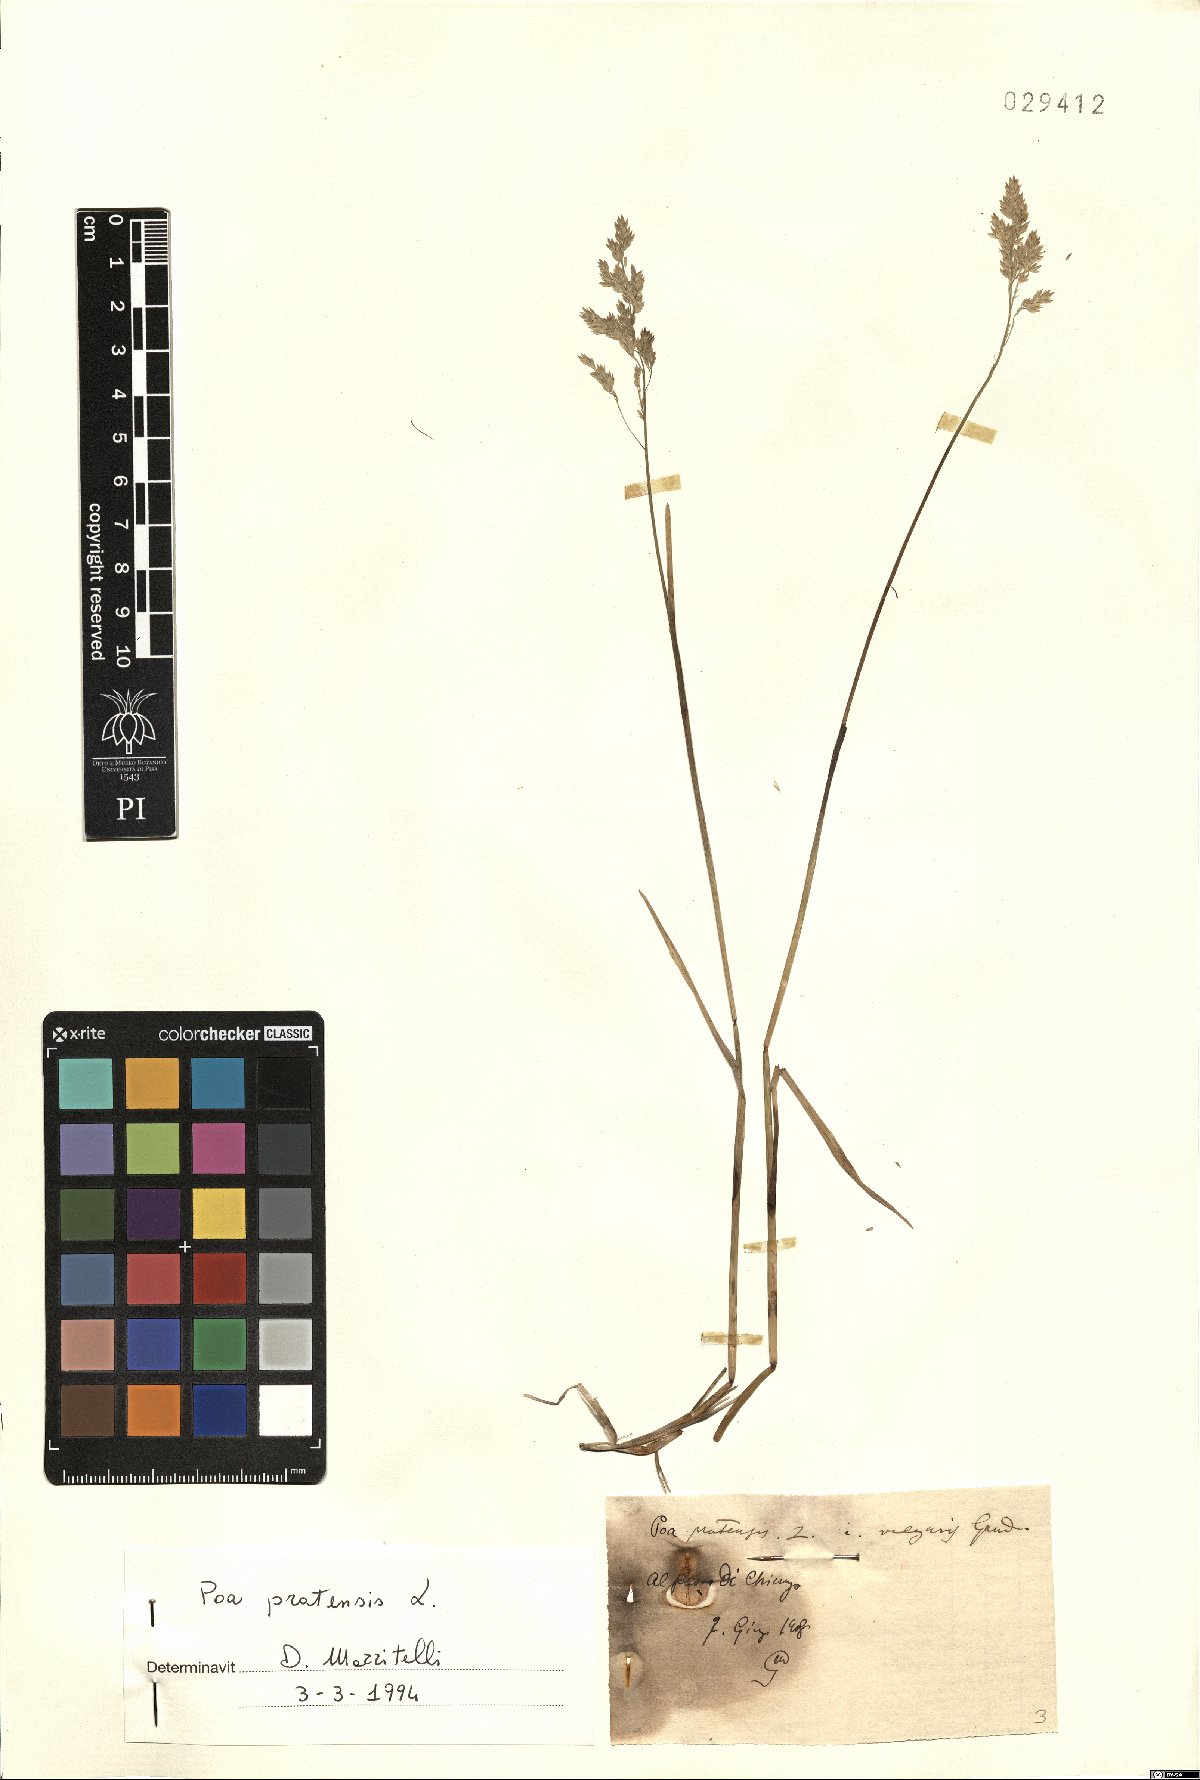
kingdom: Plantae
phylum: Tracheophyta
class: Liliopsida
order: Poales
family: Poaceae
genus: Poa
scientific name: Poa pratensis
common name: Kentucky bluegrass
